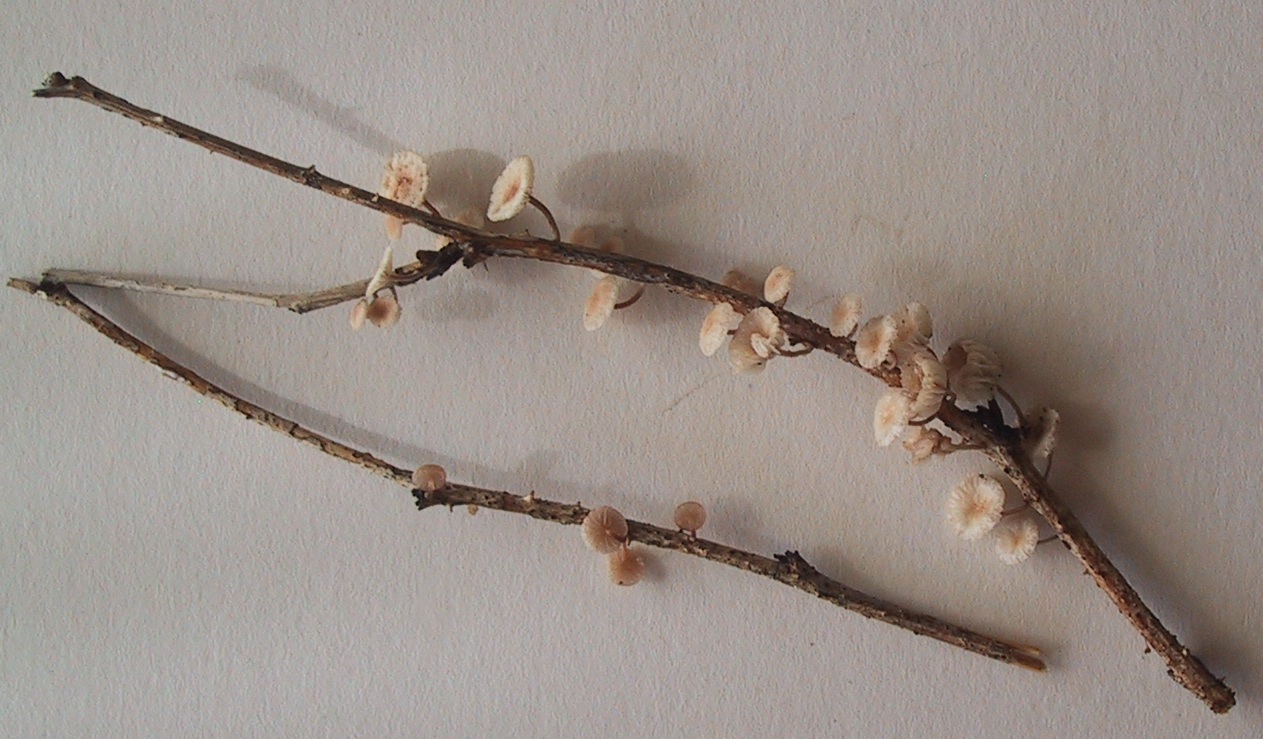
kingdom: Fungi
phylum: Basidiomycota
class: Agaricomycetes
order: Agaricales
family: Omphalotaceae
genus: Collybiopsis
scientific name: Collybiopsis ramealis
